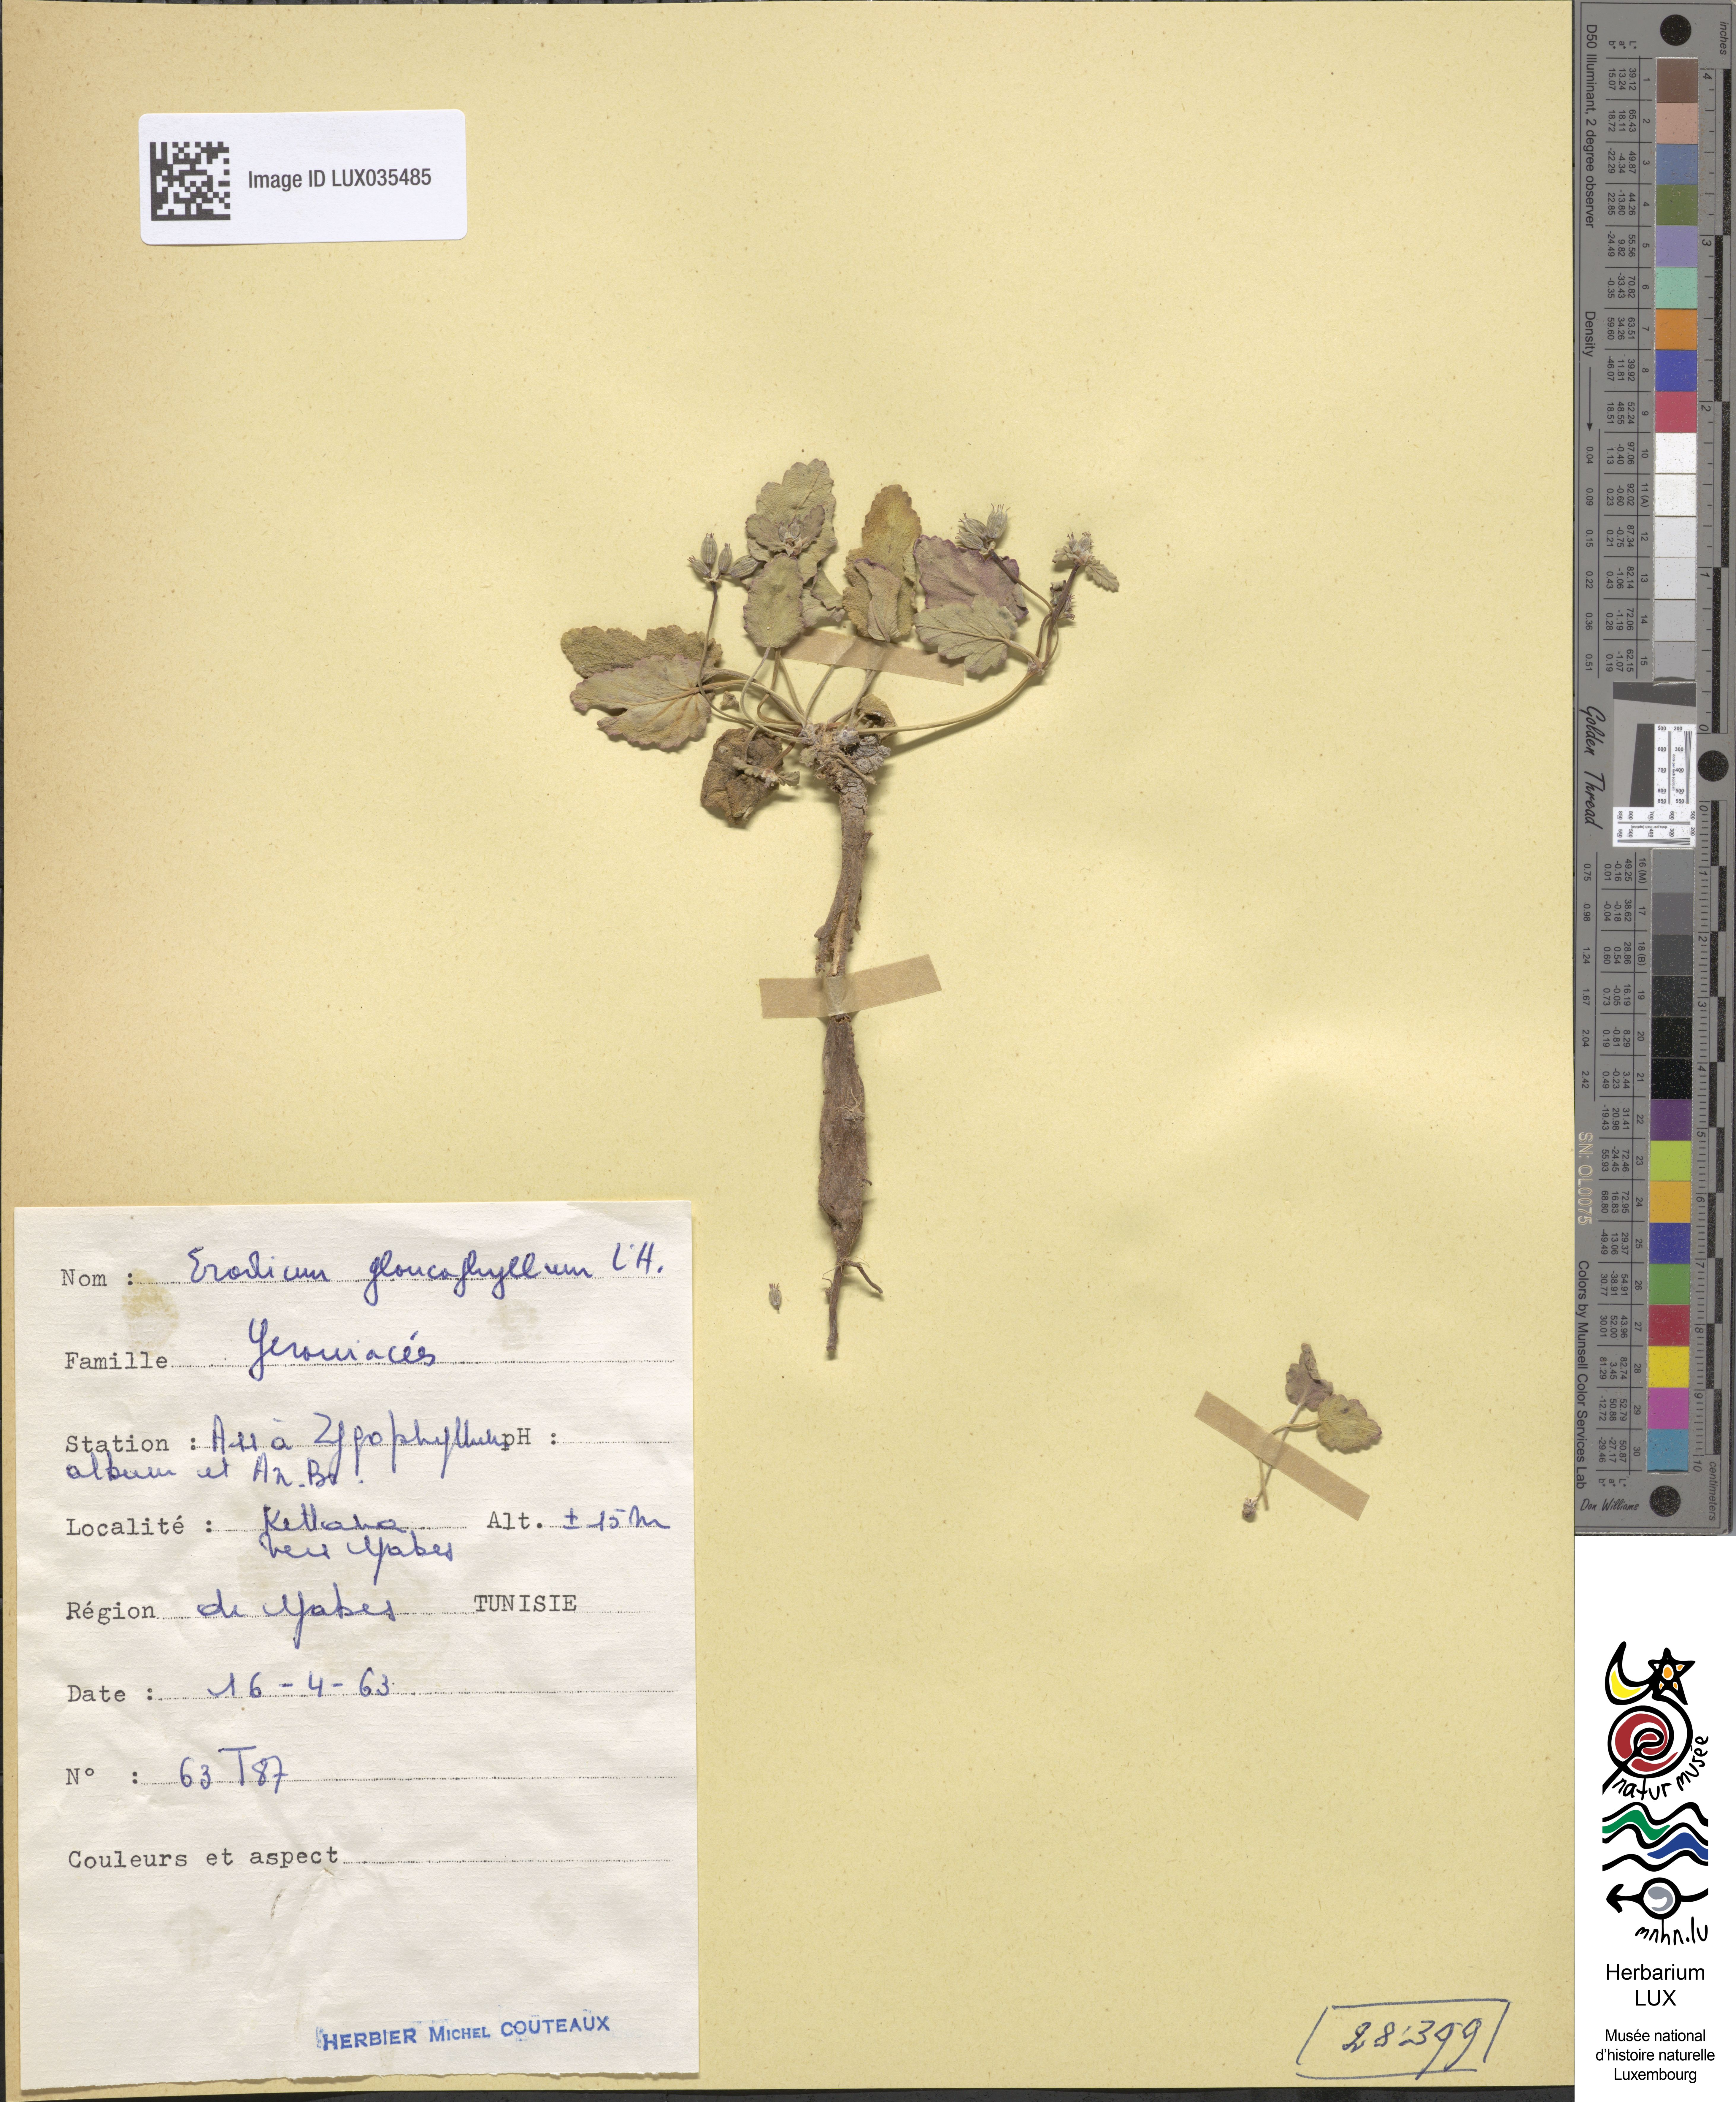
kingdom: Plantae
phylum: Tracheophyta
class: Magnoliopsida
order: Geraniales
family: Geraniaceae
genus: Erodium
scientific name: Erodium glaucophyllum
